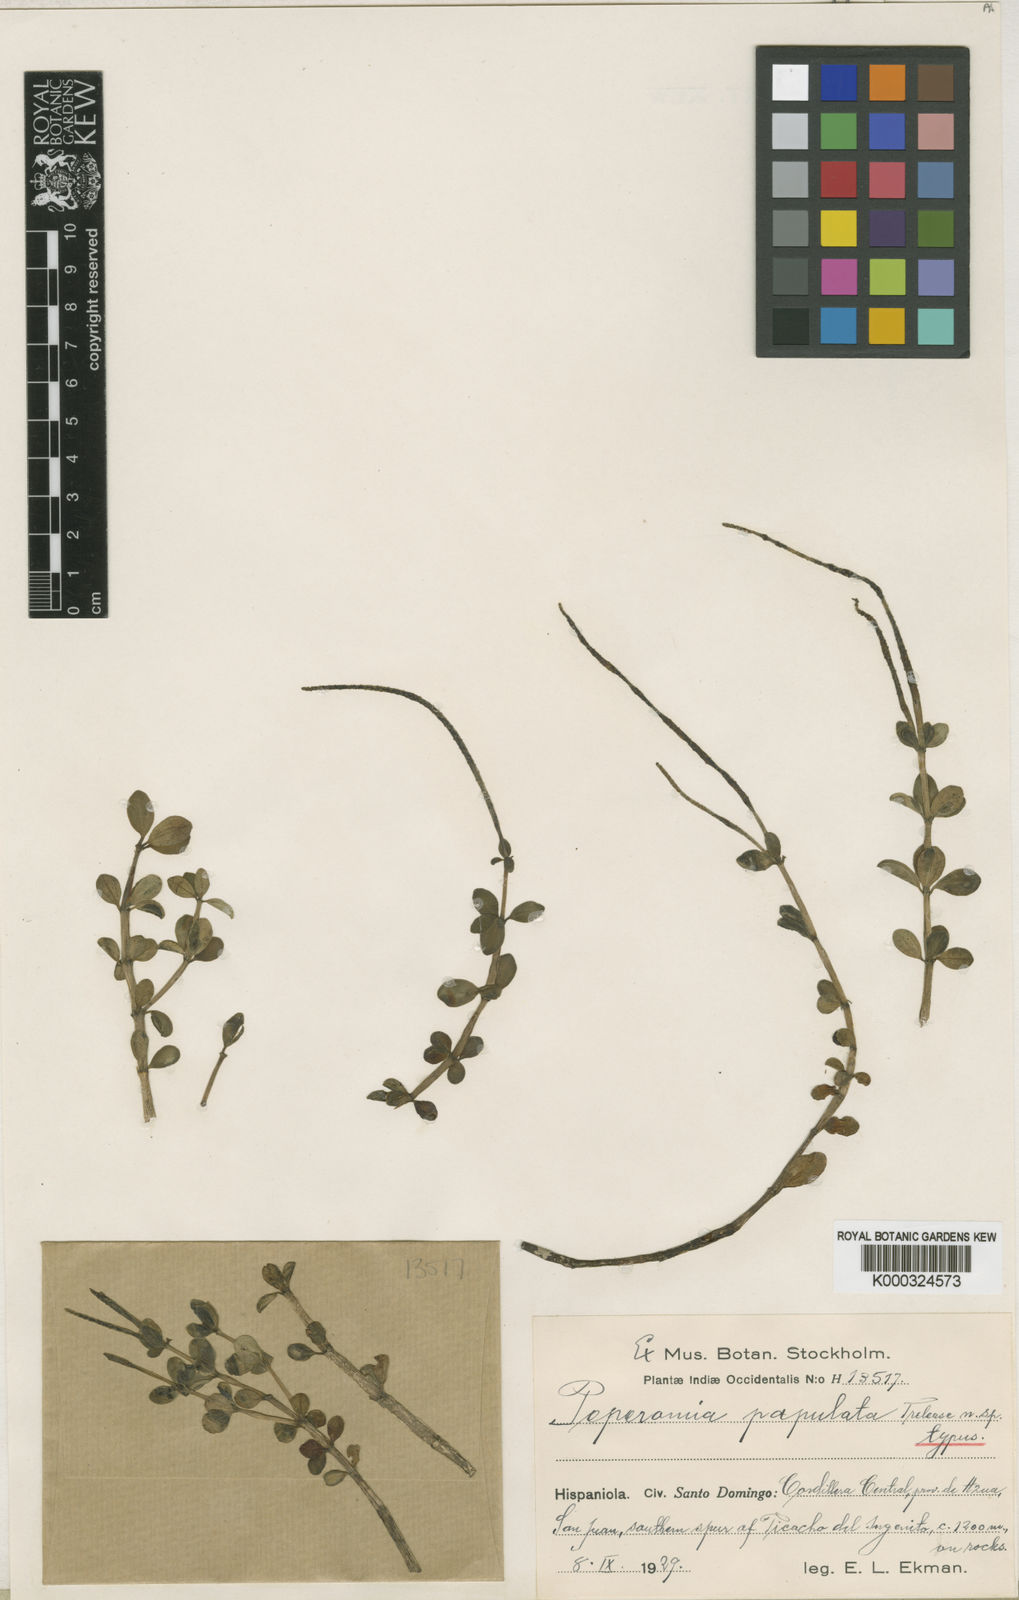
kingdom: Plantae
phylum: Tracheophyta
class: Magnoliopsida
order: Piperales
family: Piperaceae
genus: Peperomia
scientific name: Peperomia verticillata
